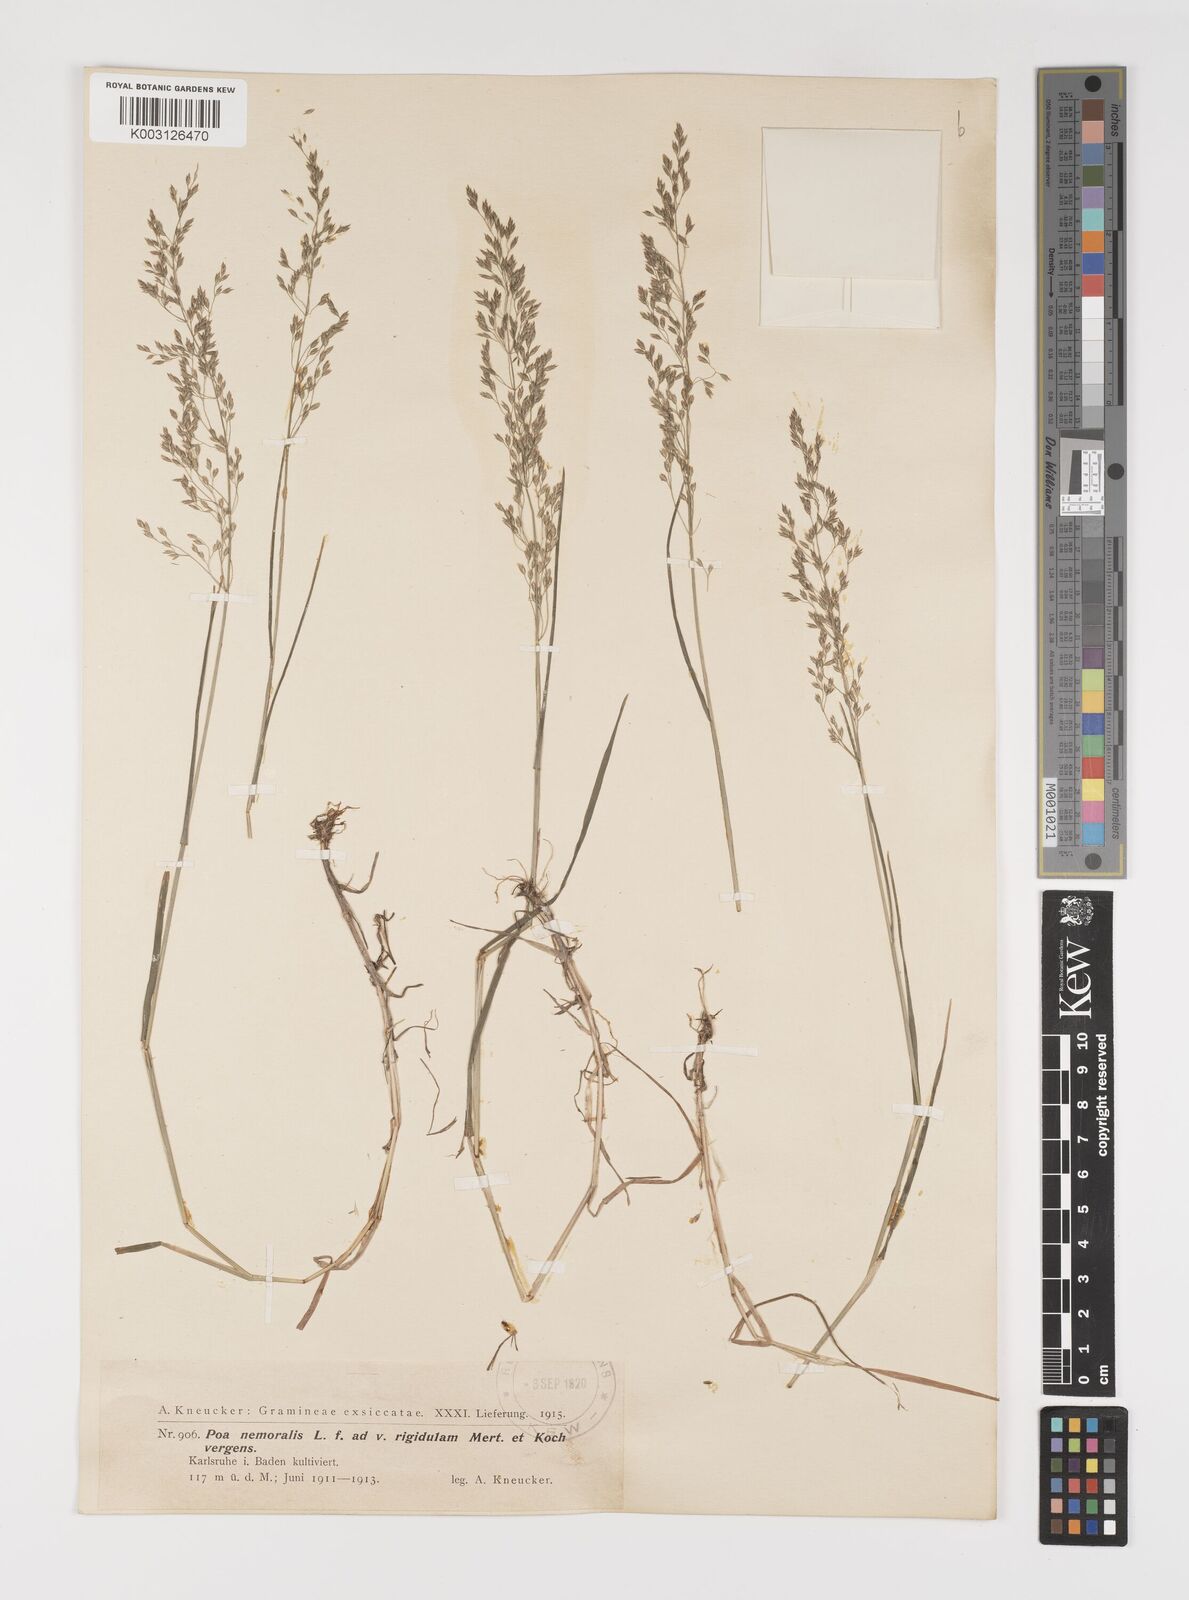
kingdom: Plantae
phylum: Tracheophyta
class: Liliopsida
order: Poales
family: Poaceae
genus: Poa
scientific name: Poa nemoralis
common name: Wood bluegrass
